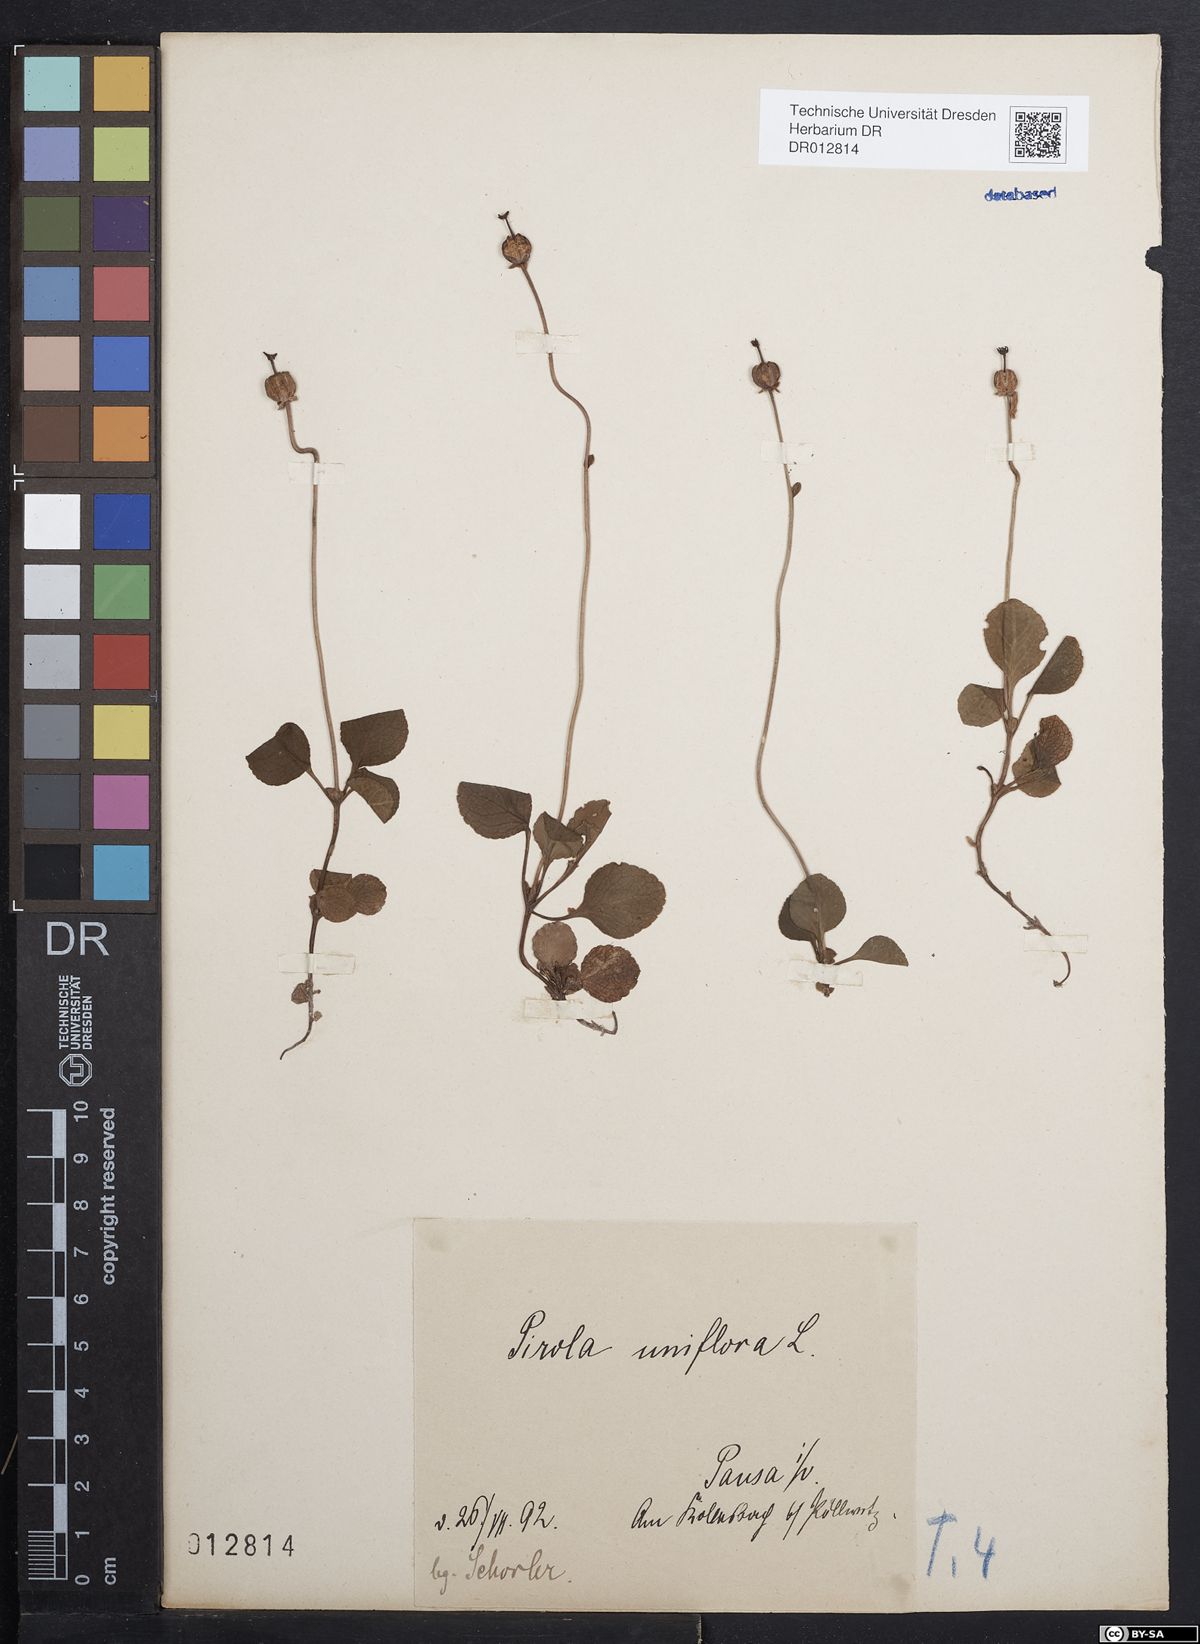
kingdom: Plantae
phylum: Tracheophyta
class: Magnoliopsida
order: Ericales
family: Ericaceae
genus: Moneses
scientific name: Moneses uniflora
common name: One-flowered wintergreen
